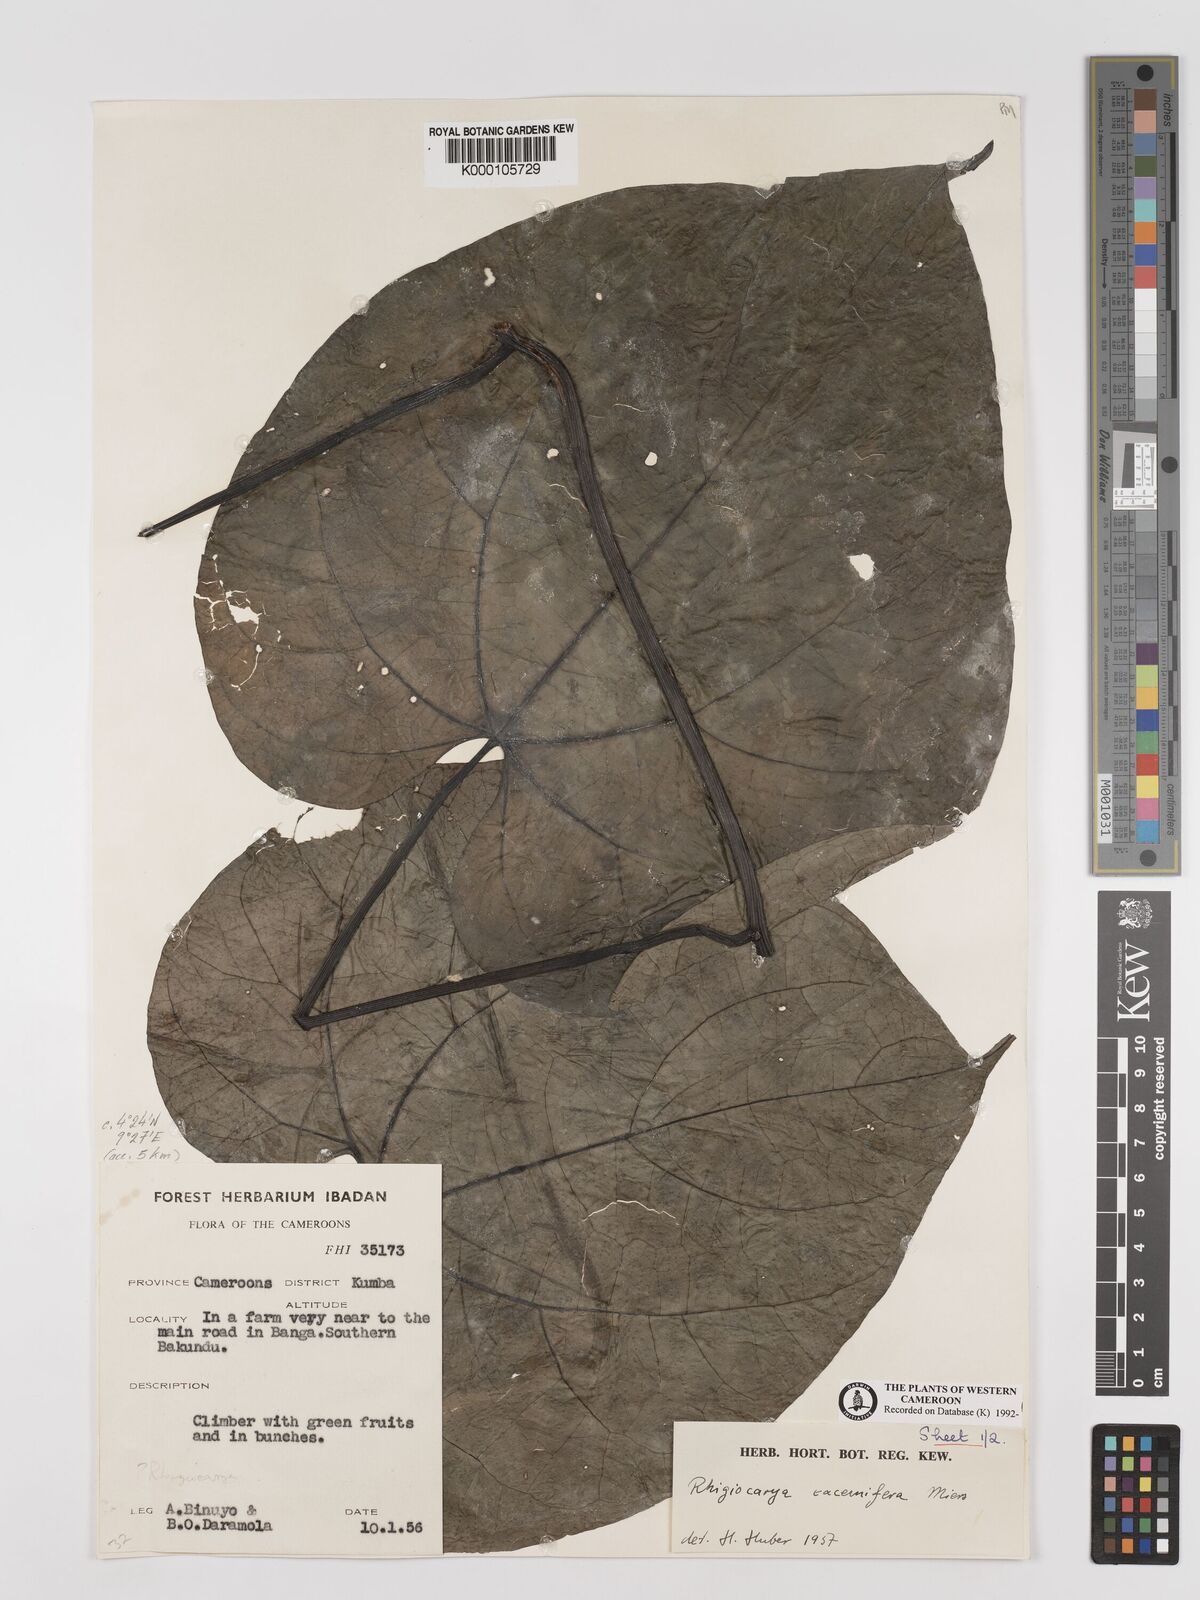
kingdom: Plantae
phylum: Tracheophyta
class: Magnoliopsida
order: Ranunculales
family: Menispermaceae
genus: Rhigiocarya
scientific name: Rhigiocarya racemifera
